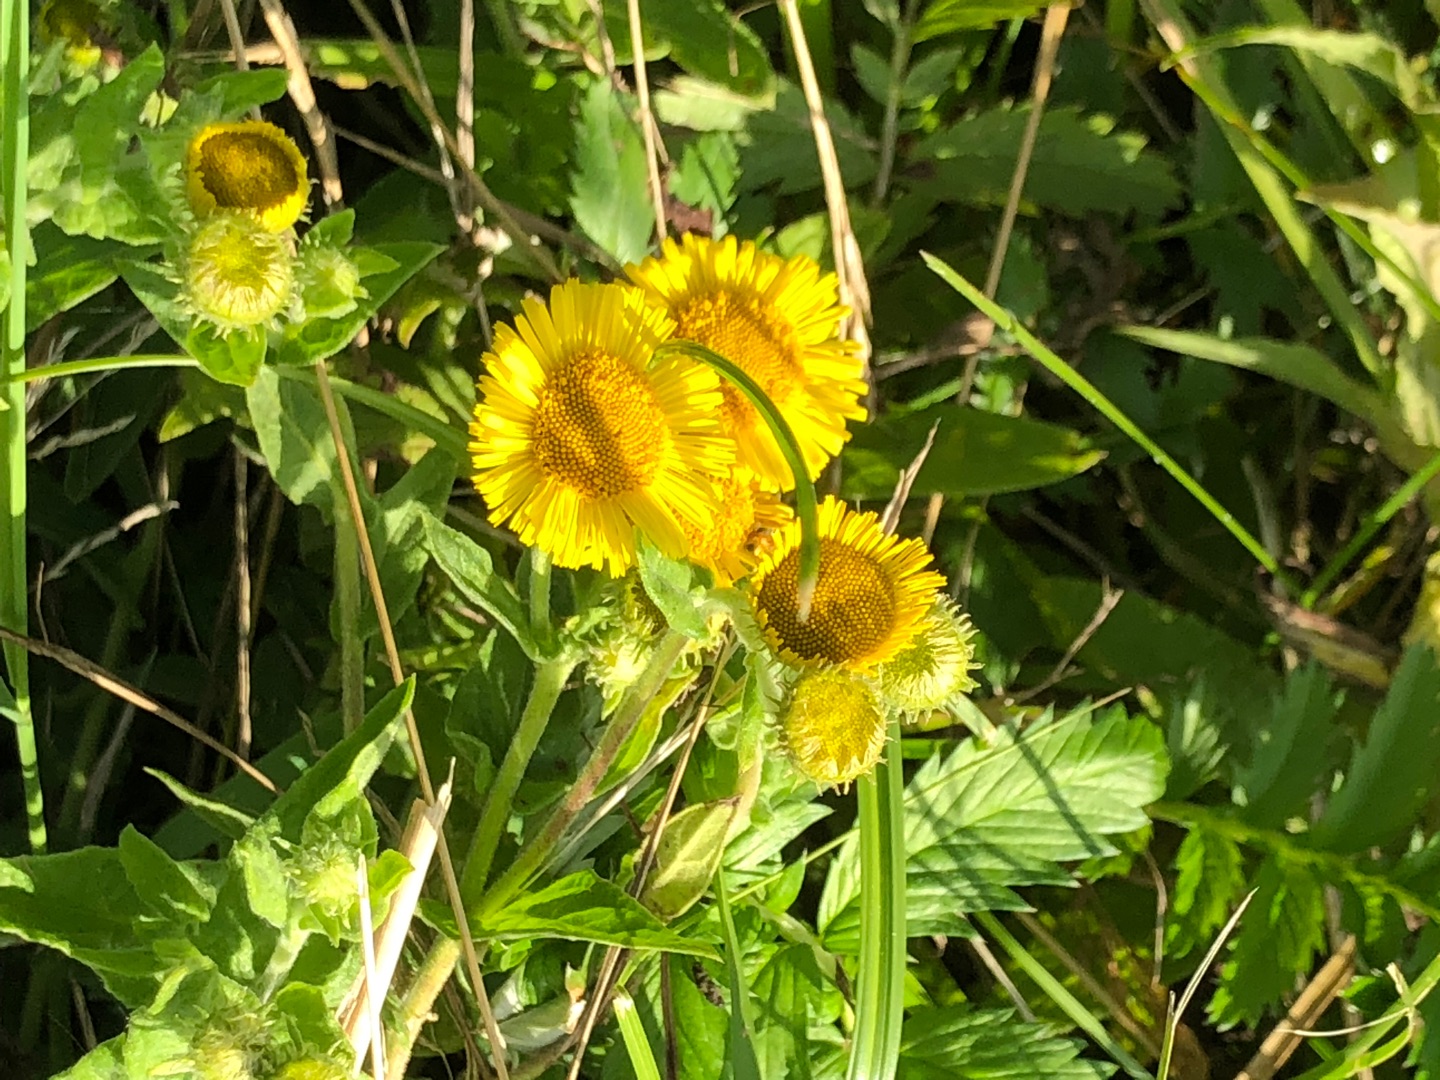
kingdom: Plantae
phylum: Tracheophyta
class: Magnoliopsida
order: Asterales
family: Asteraceae
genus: Pulicaria
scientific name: Pulicaria dysenterica
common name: Strand-loppeurt
